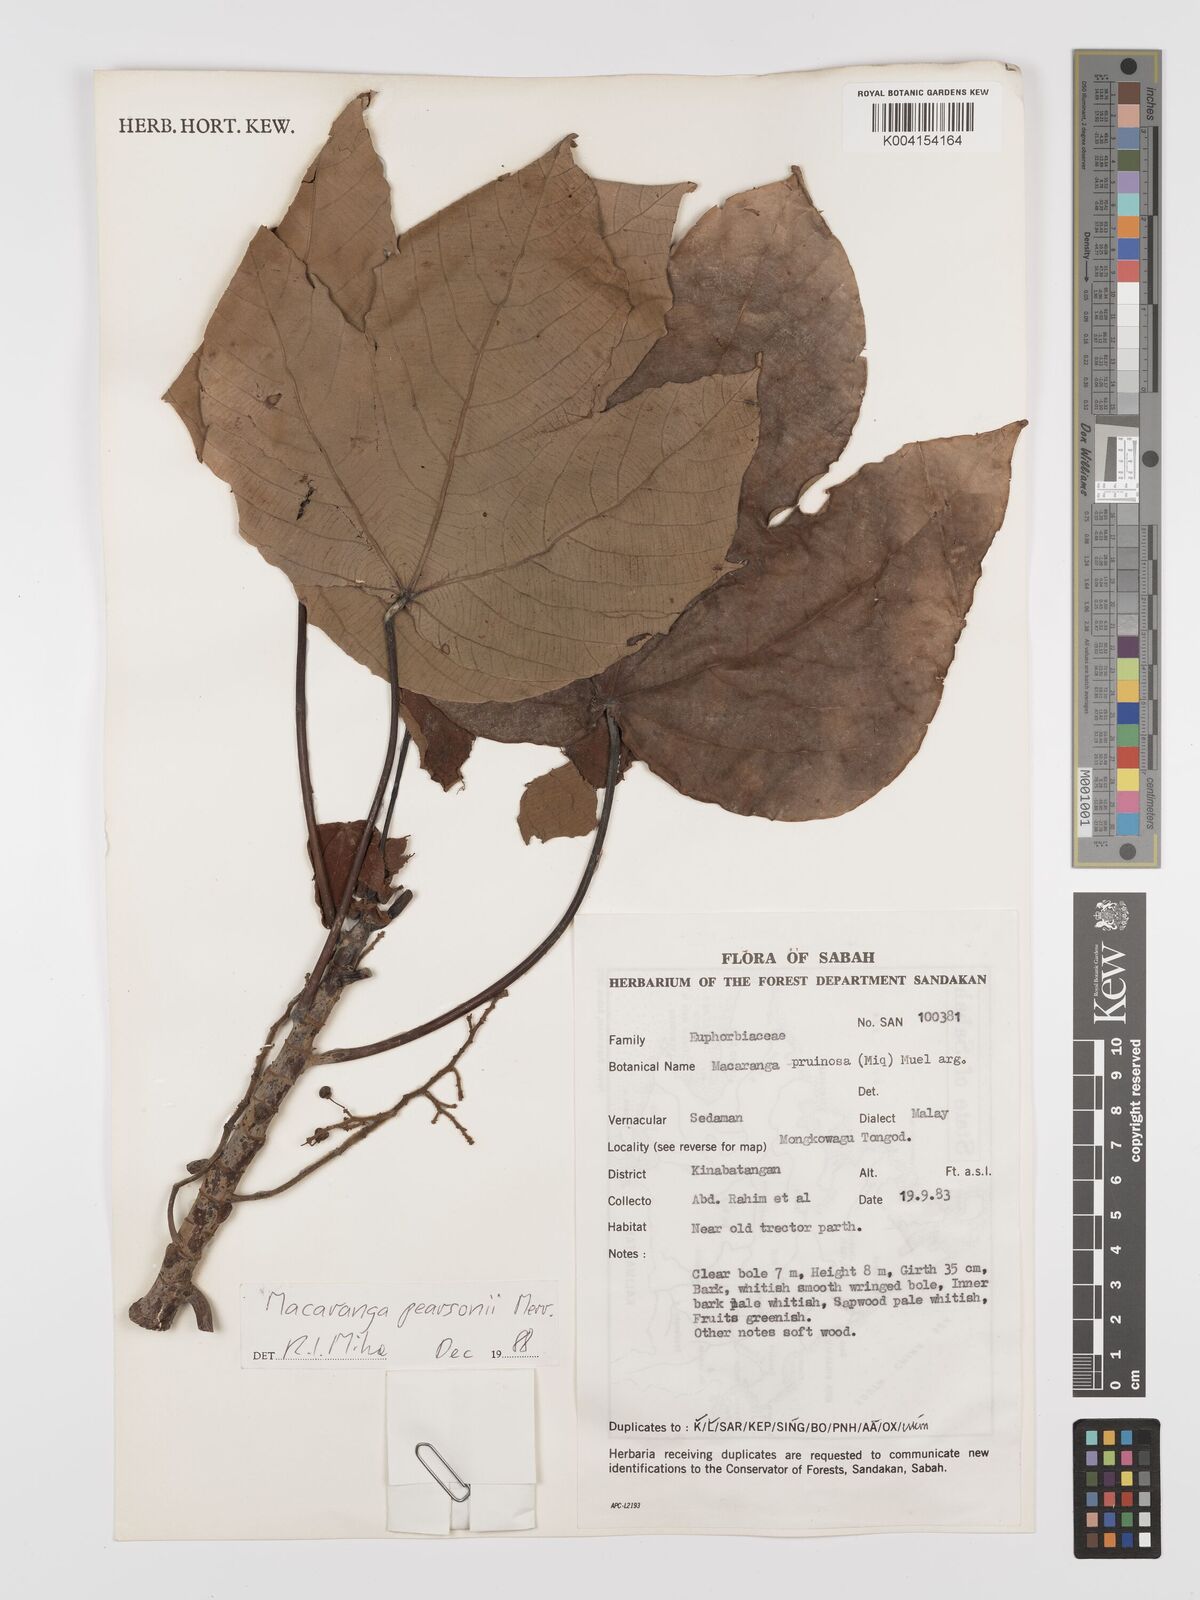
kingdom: Plantae
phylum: Tracheophyta
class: Magnoliopsida
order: Malpighiales
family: Euphorbiaceae
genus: Macaranga
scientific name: Macaranga pearsonii
